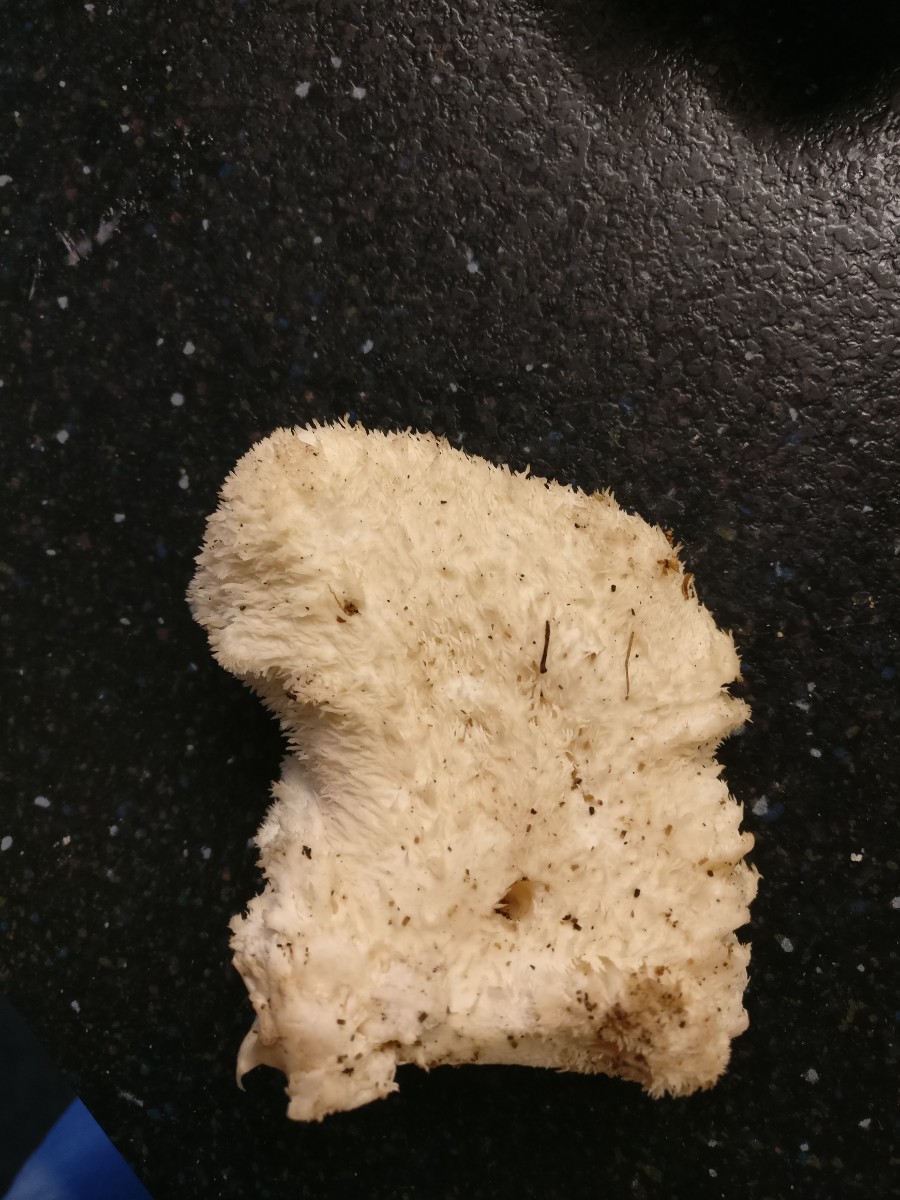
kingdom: Fungi
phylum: Basidiomycota
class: Agaricomycetes
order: Russulales
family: Hericiaceae
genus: Hericium
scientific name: Hericium cirrhatum
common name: børstepigsvamp
